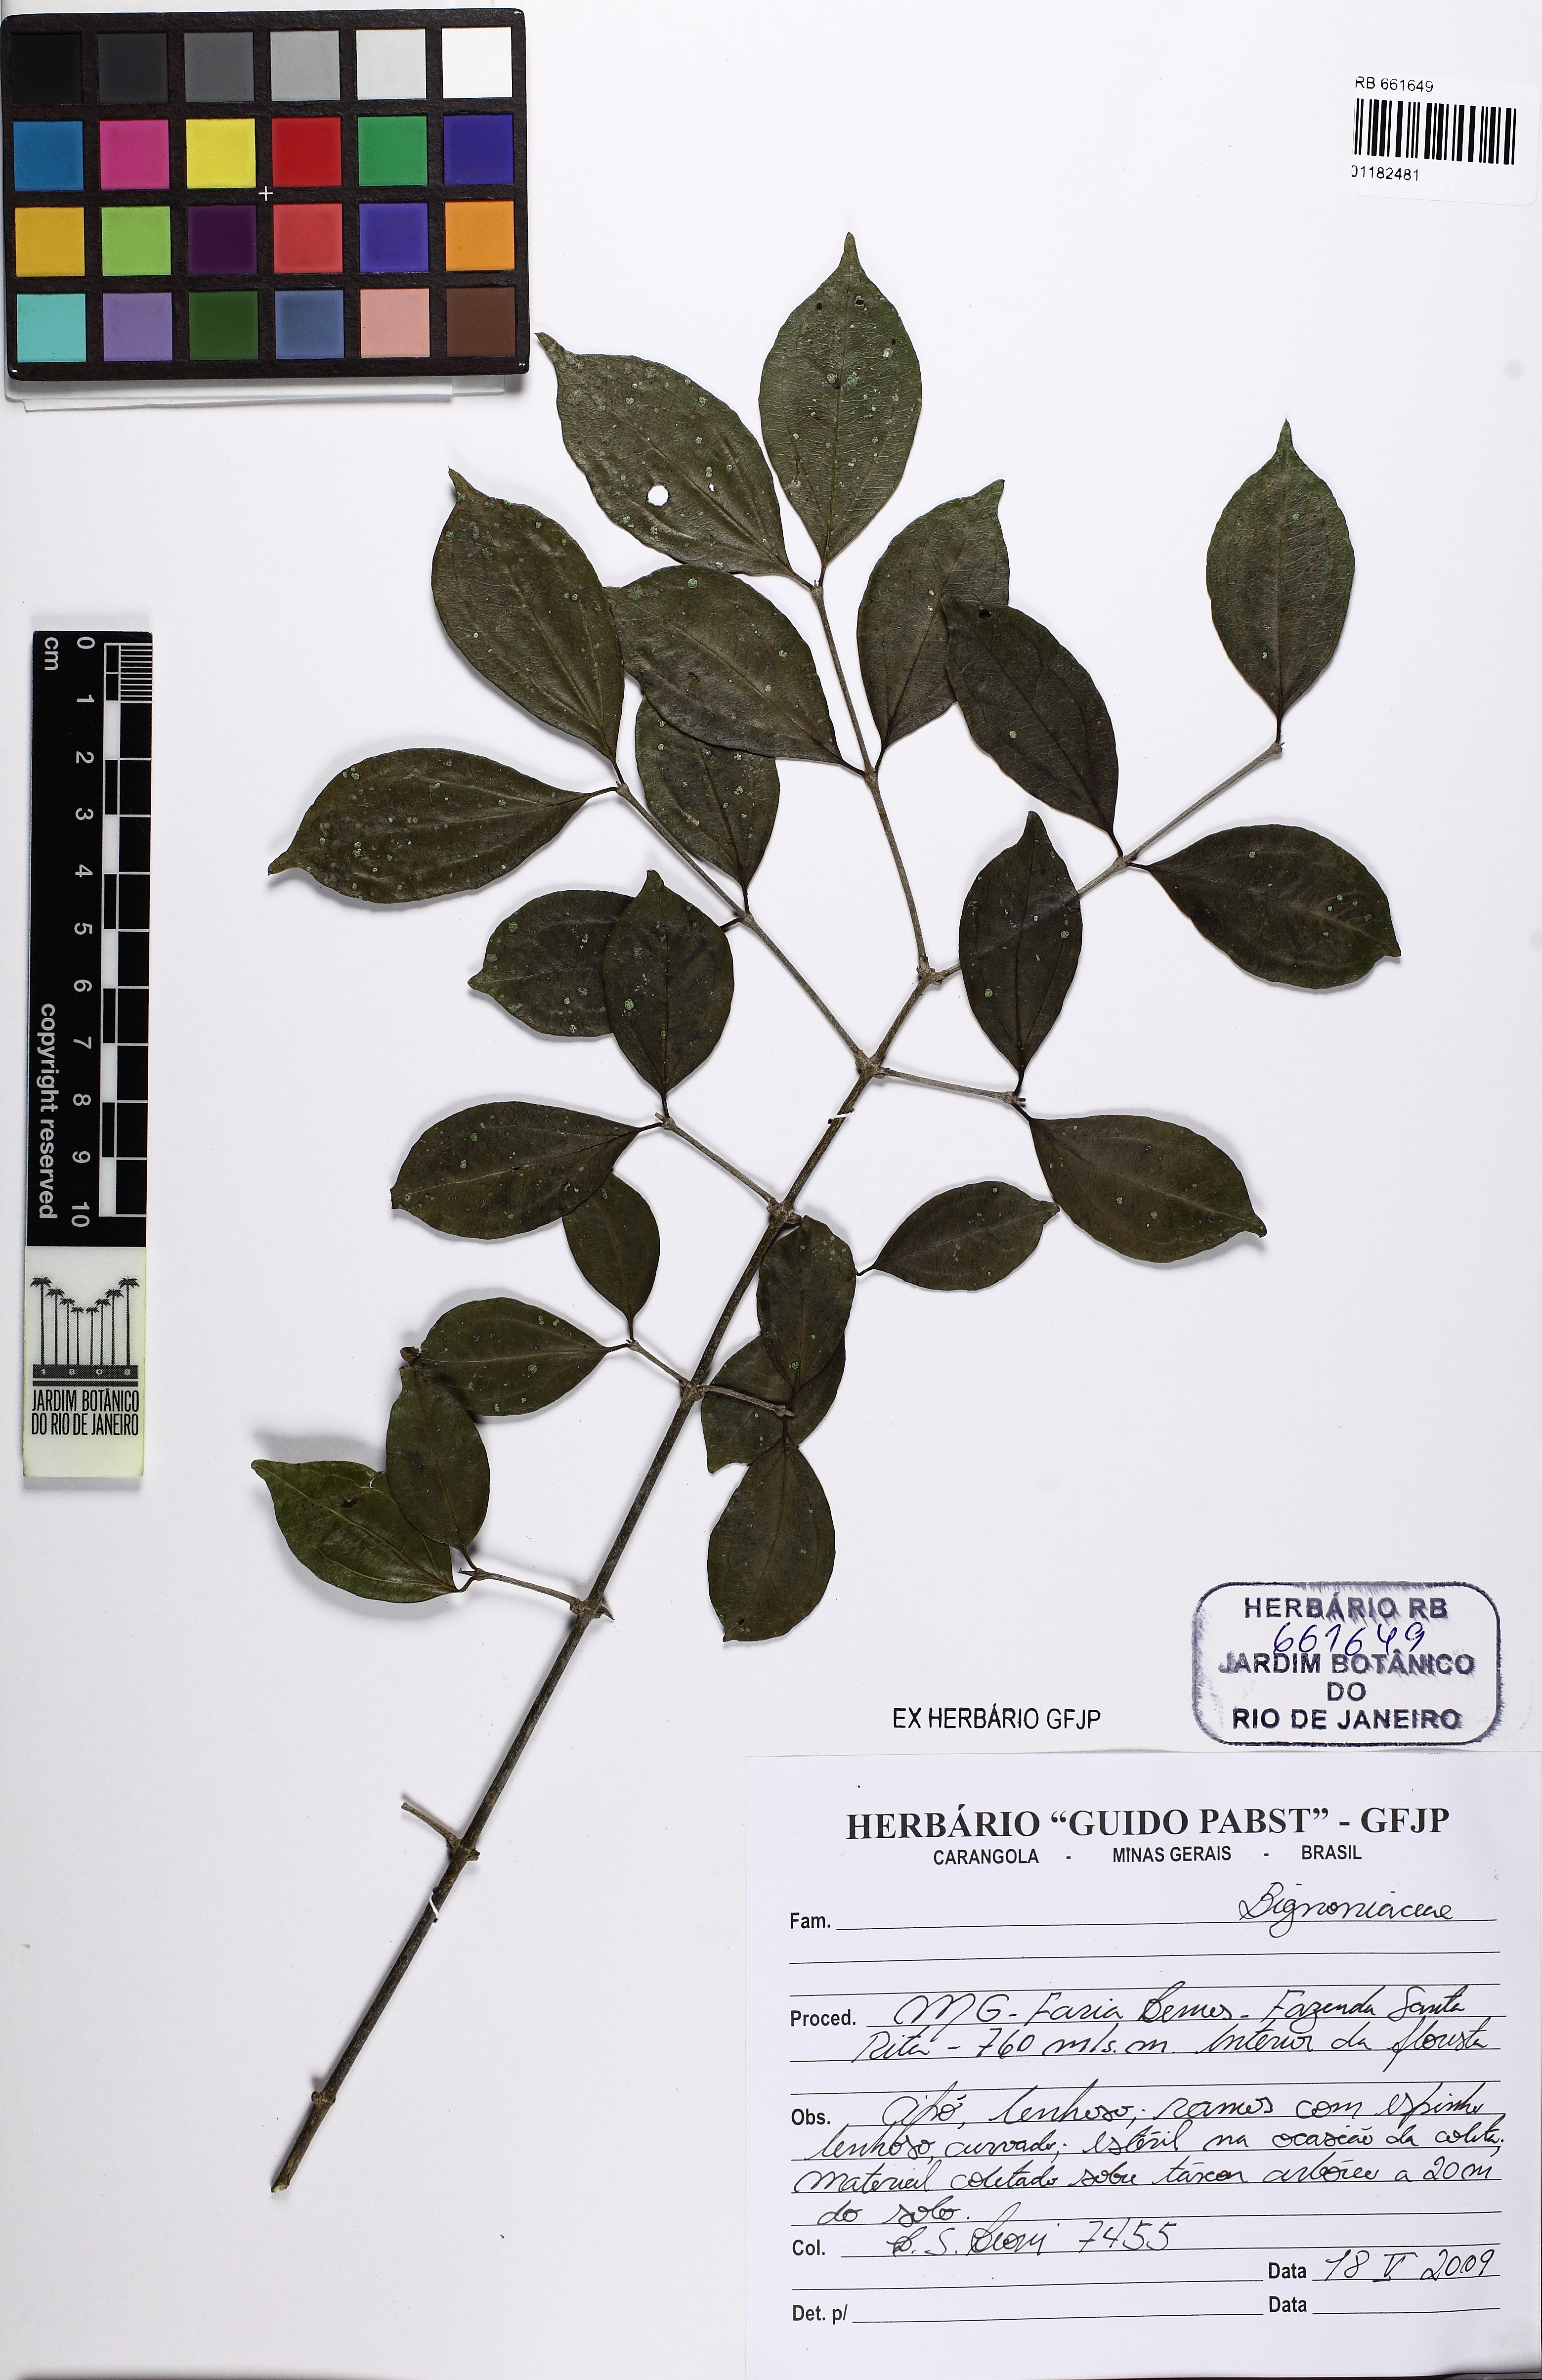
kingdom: Plantae
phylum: Tracheophyta
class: Magnoliopsida
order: Gentianales
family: Loganiaceae
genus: Strychnos
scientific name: Strychnos
